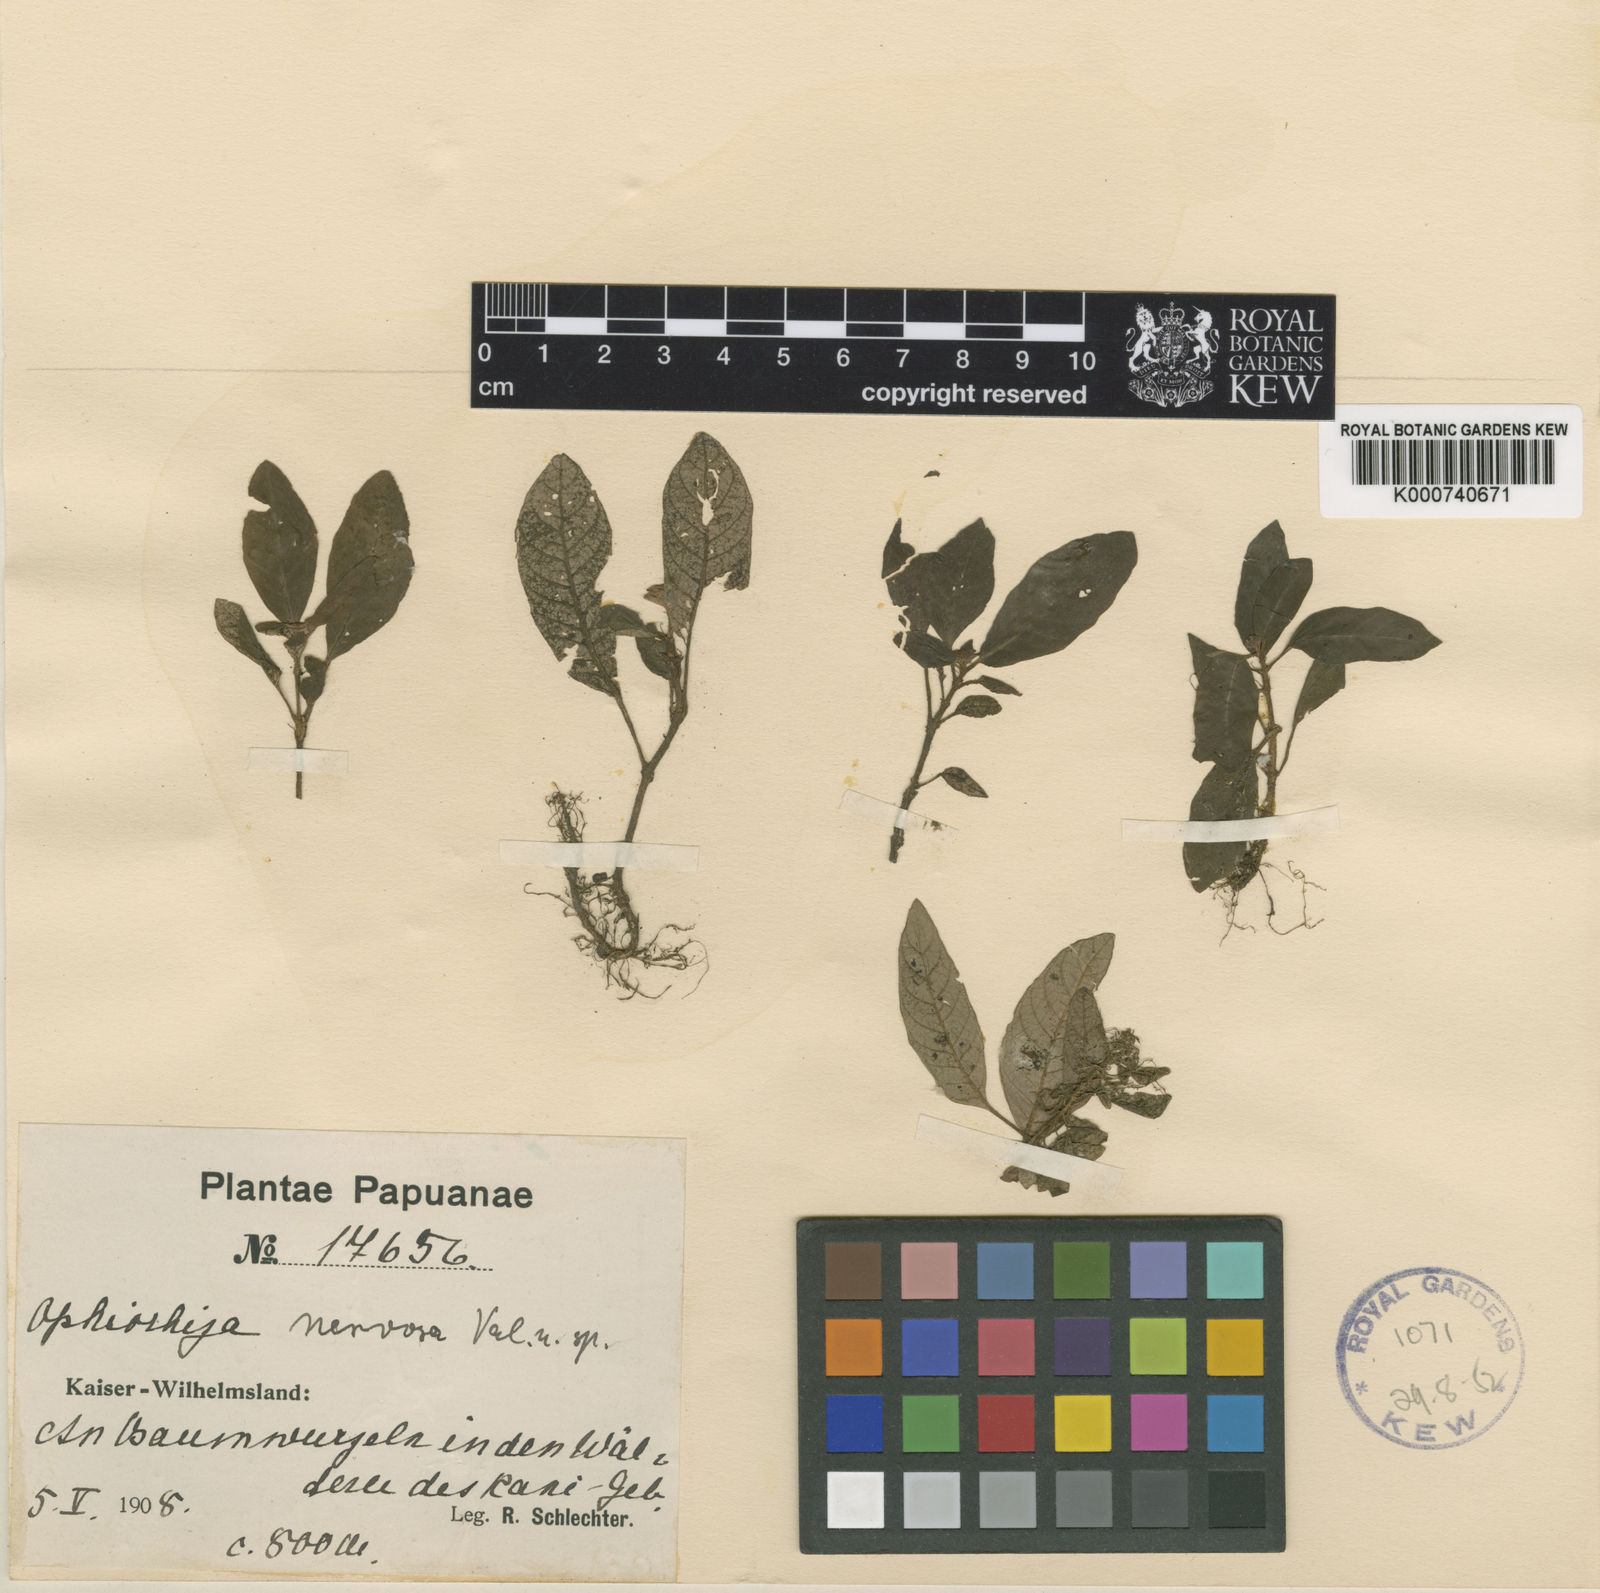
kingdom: Plantae
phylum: Tracheophyta
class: Magnoliopsida
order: Gentianales
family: Rubiaceae
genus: Ophiorrhiza
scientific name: Ophiorrhiza nervosa
